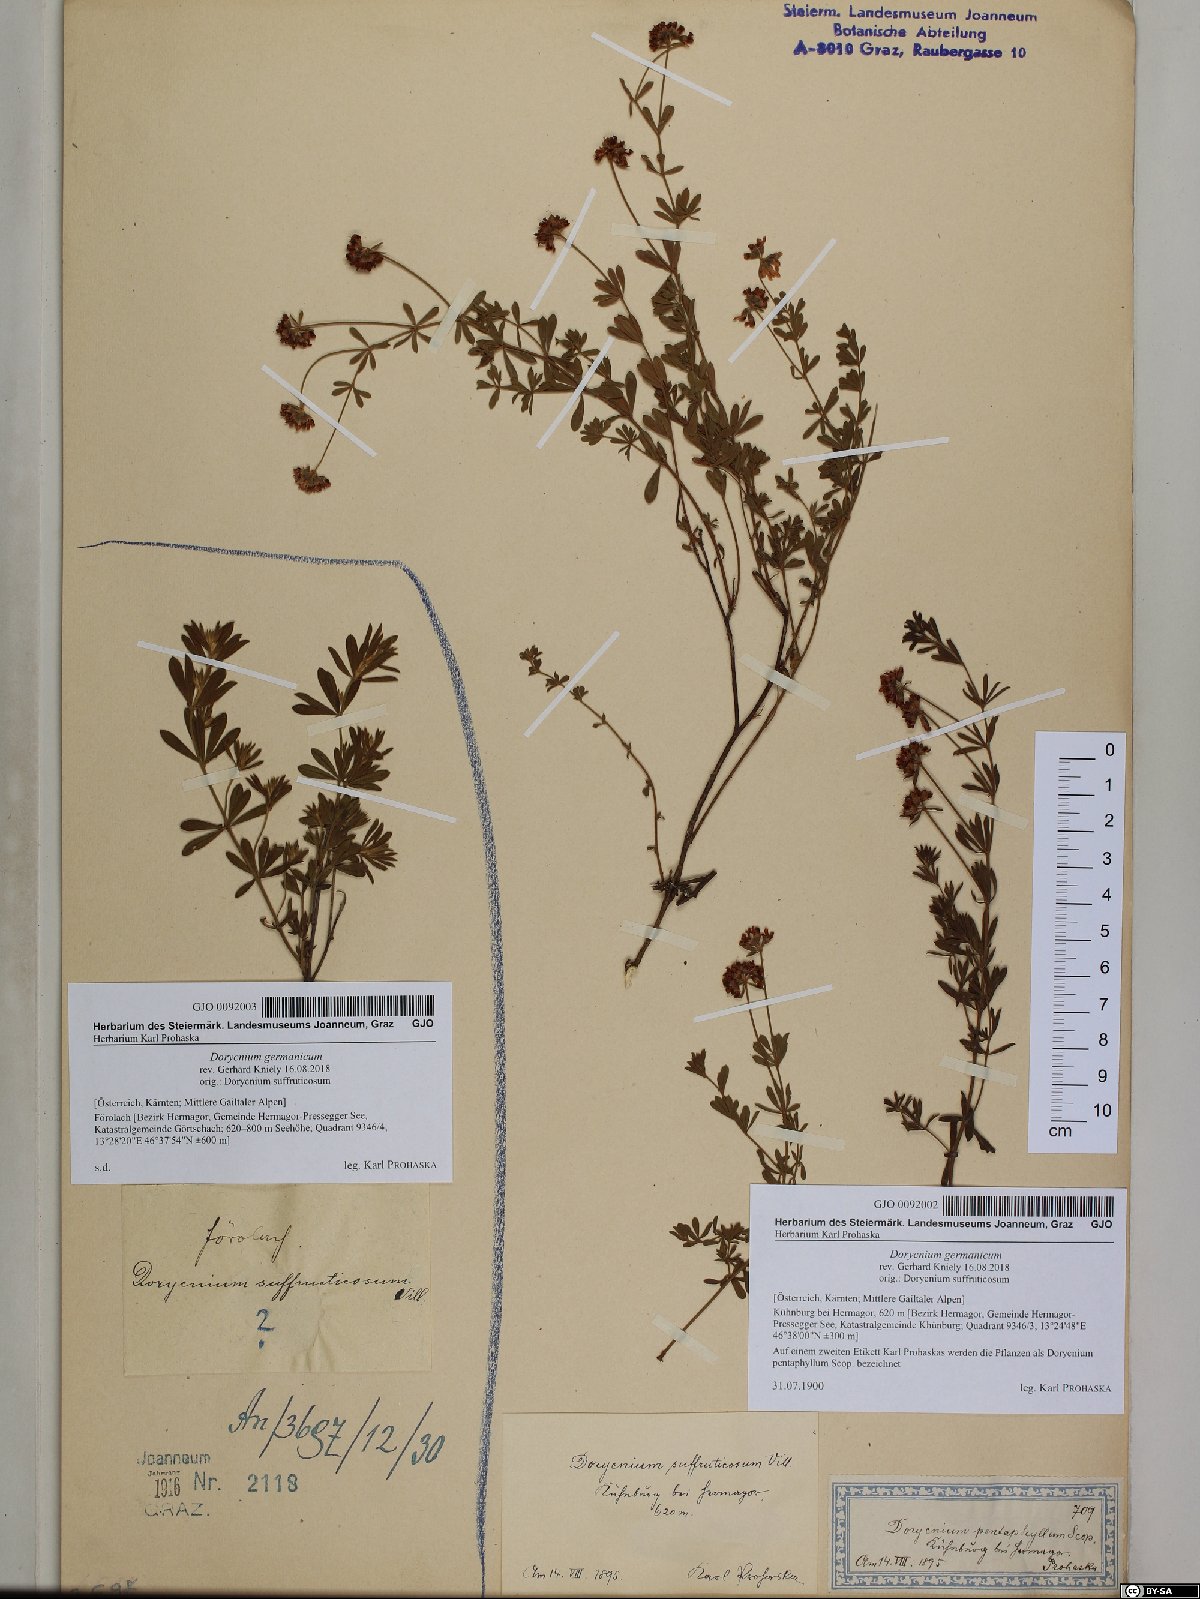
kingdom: Plantae
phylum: Tracheophyta
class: Magnoliopsida
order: Fabales
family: Fabaceae
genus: Lotus
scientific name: Lotus germanicus
